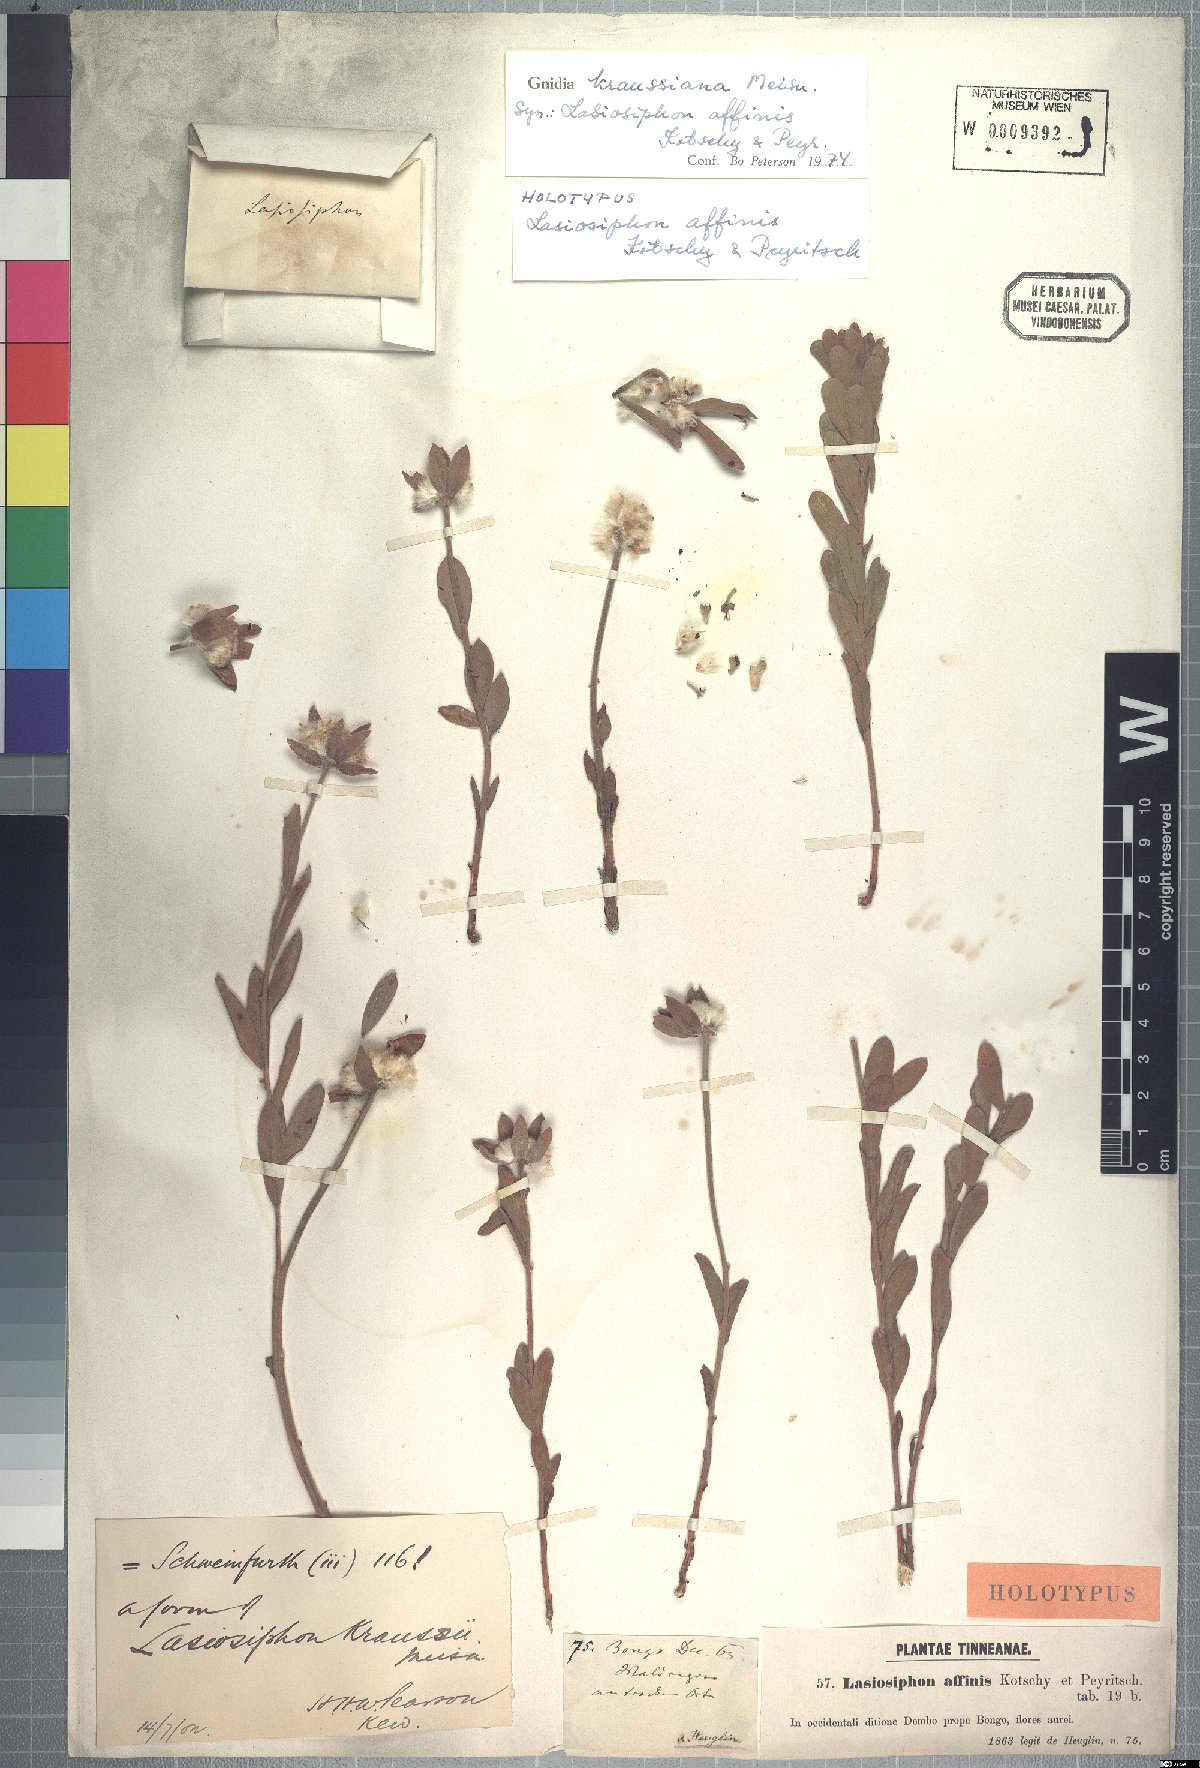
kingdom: Plantae
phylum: Tracheophyta
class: Magnoliopsida
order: Malvales
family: Thymelaeaceae
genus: Gnidia
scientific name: Gnidia kraussiana
